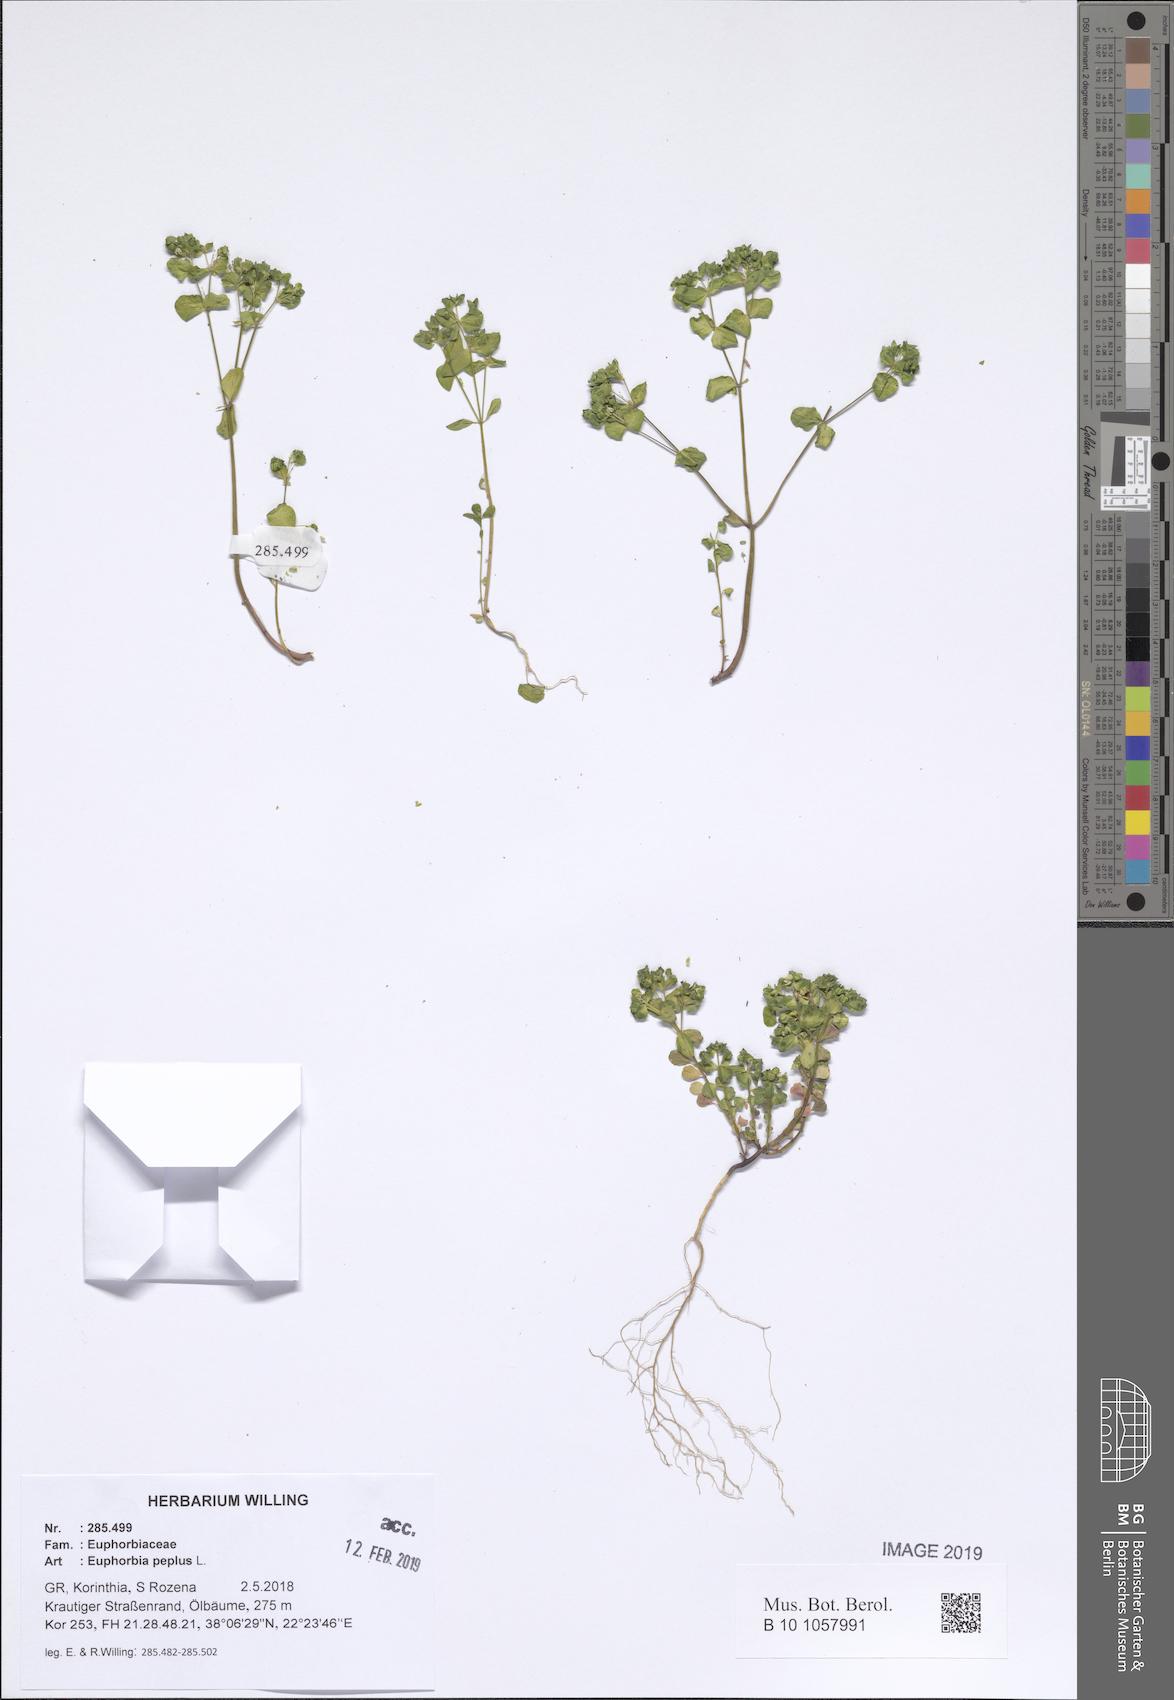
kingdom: Plantae
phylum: Tracheophyta
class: Magnoliopsida
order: Malpighiales
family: Euphorbiaceae
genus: Euphorbia
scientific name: Euphorbia peplus
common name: Petty spurge
